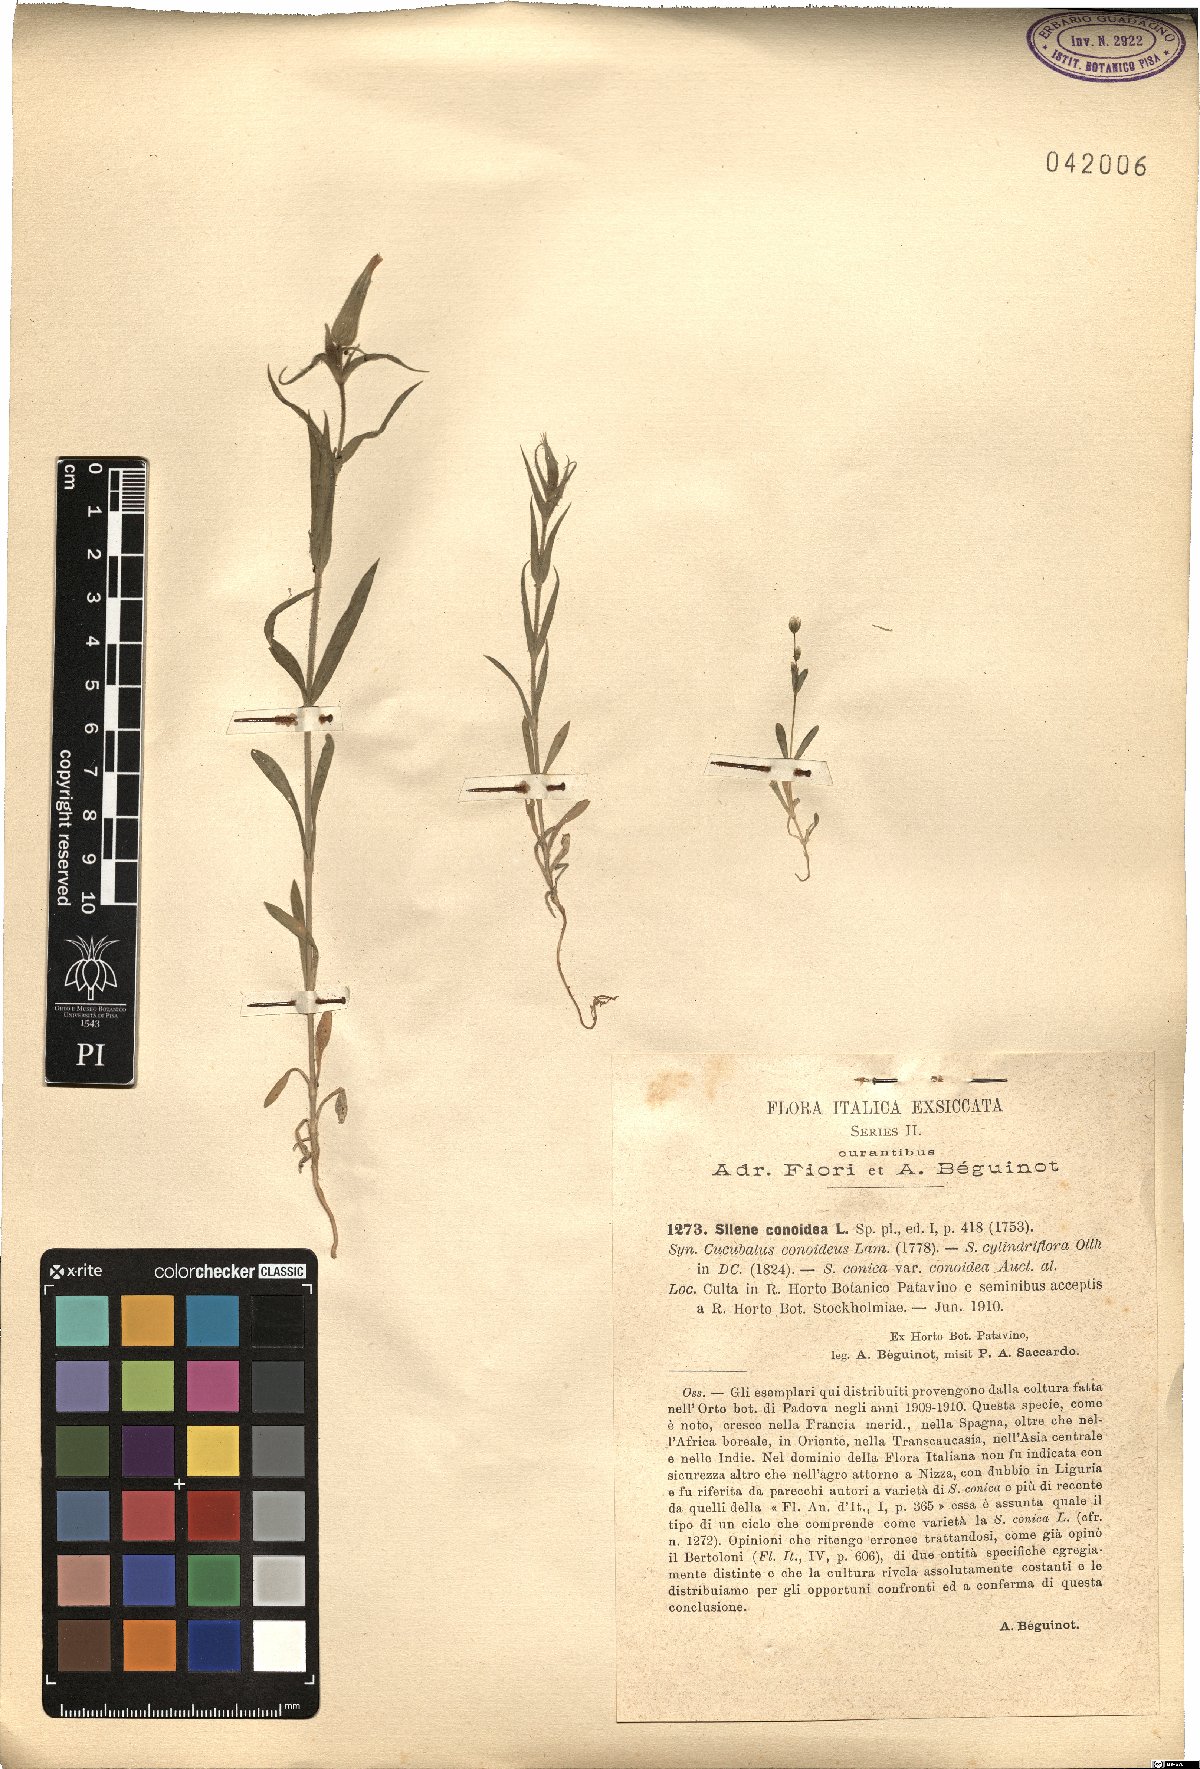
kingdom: Plantae
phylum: Tracheophyta
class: Magnoliopsida
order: Caryophyllales
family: Caryophyllaceae
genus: Silene
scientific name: Silene conoidea
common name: Weed silene
